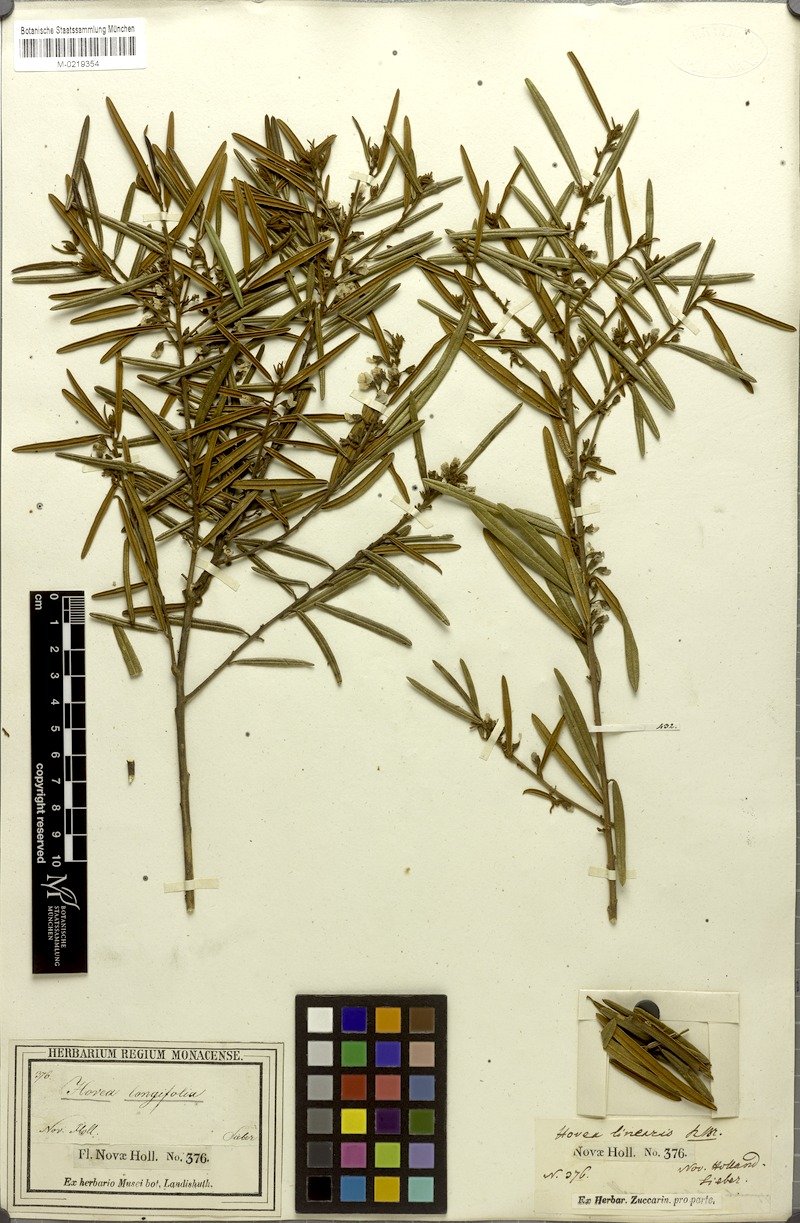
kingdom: Plantae
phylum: Tracheophyta
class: Magnoliopsida
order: Fabales
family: Fabaceae
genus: Hovea
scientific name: Hovea longifolia
